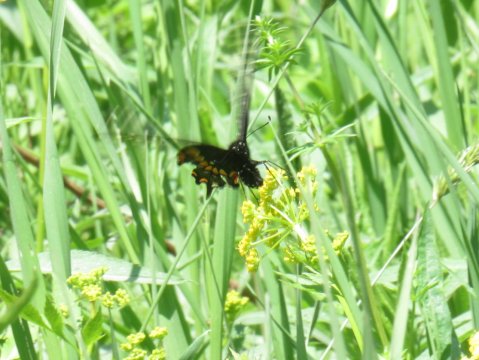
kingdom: Animalia
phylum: Arthropoda
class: Insecta
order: Lepidoptera
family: Papilionidae
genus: Papilio
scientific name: Papilio polyxenes
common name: Black Swallowtail
